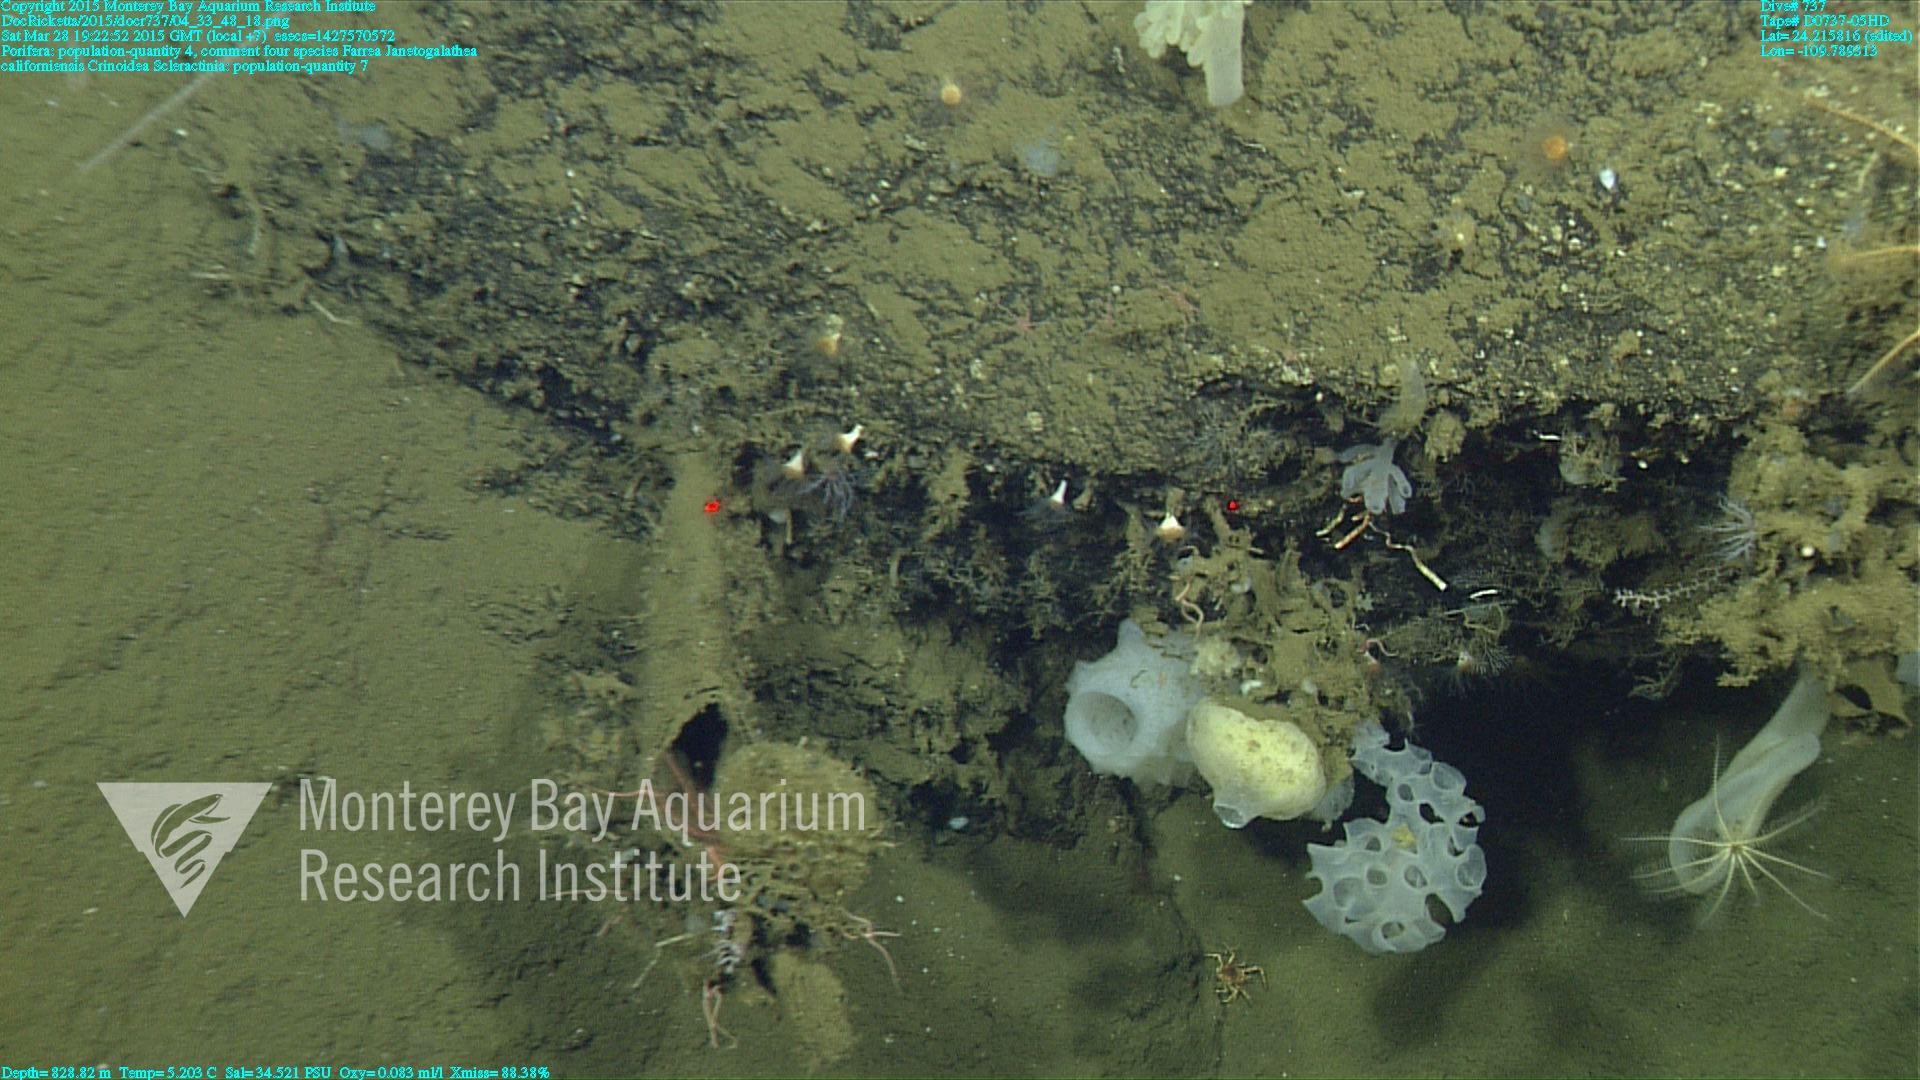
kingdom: Animalia
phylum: Cnidaria
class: Anthozoa
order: Scleractinia
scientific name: Scleractinia
